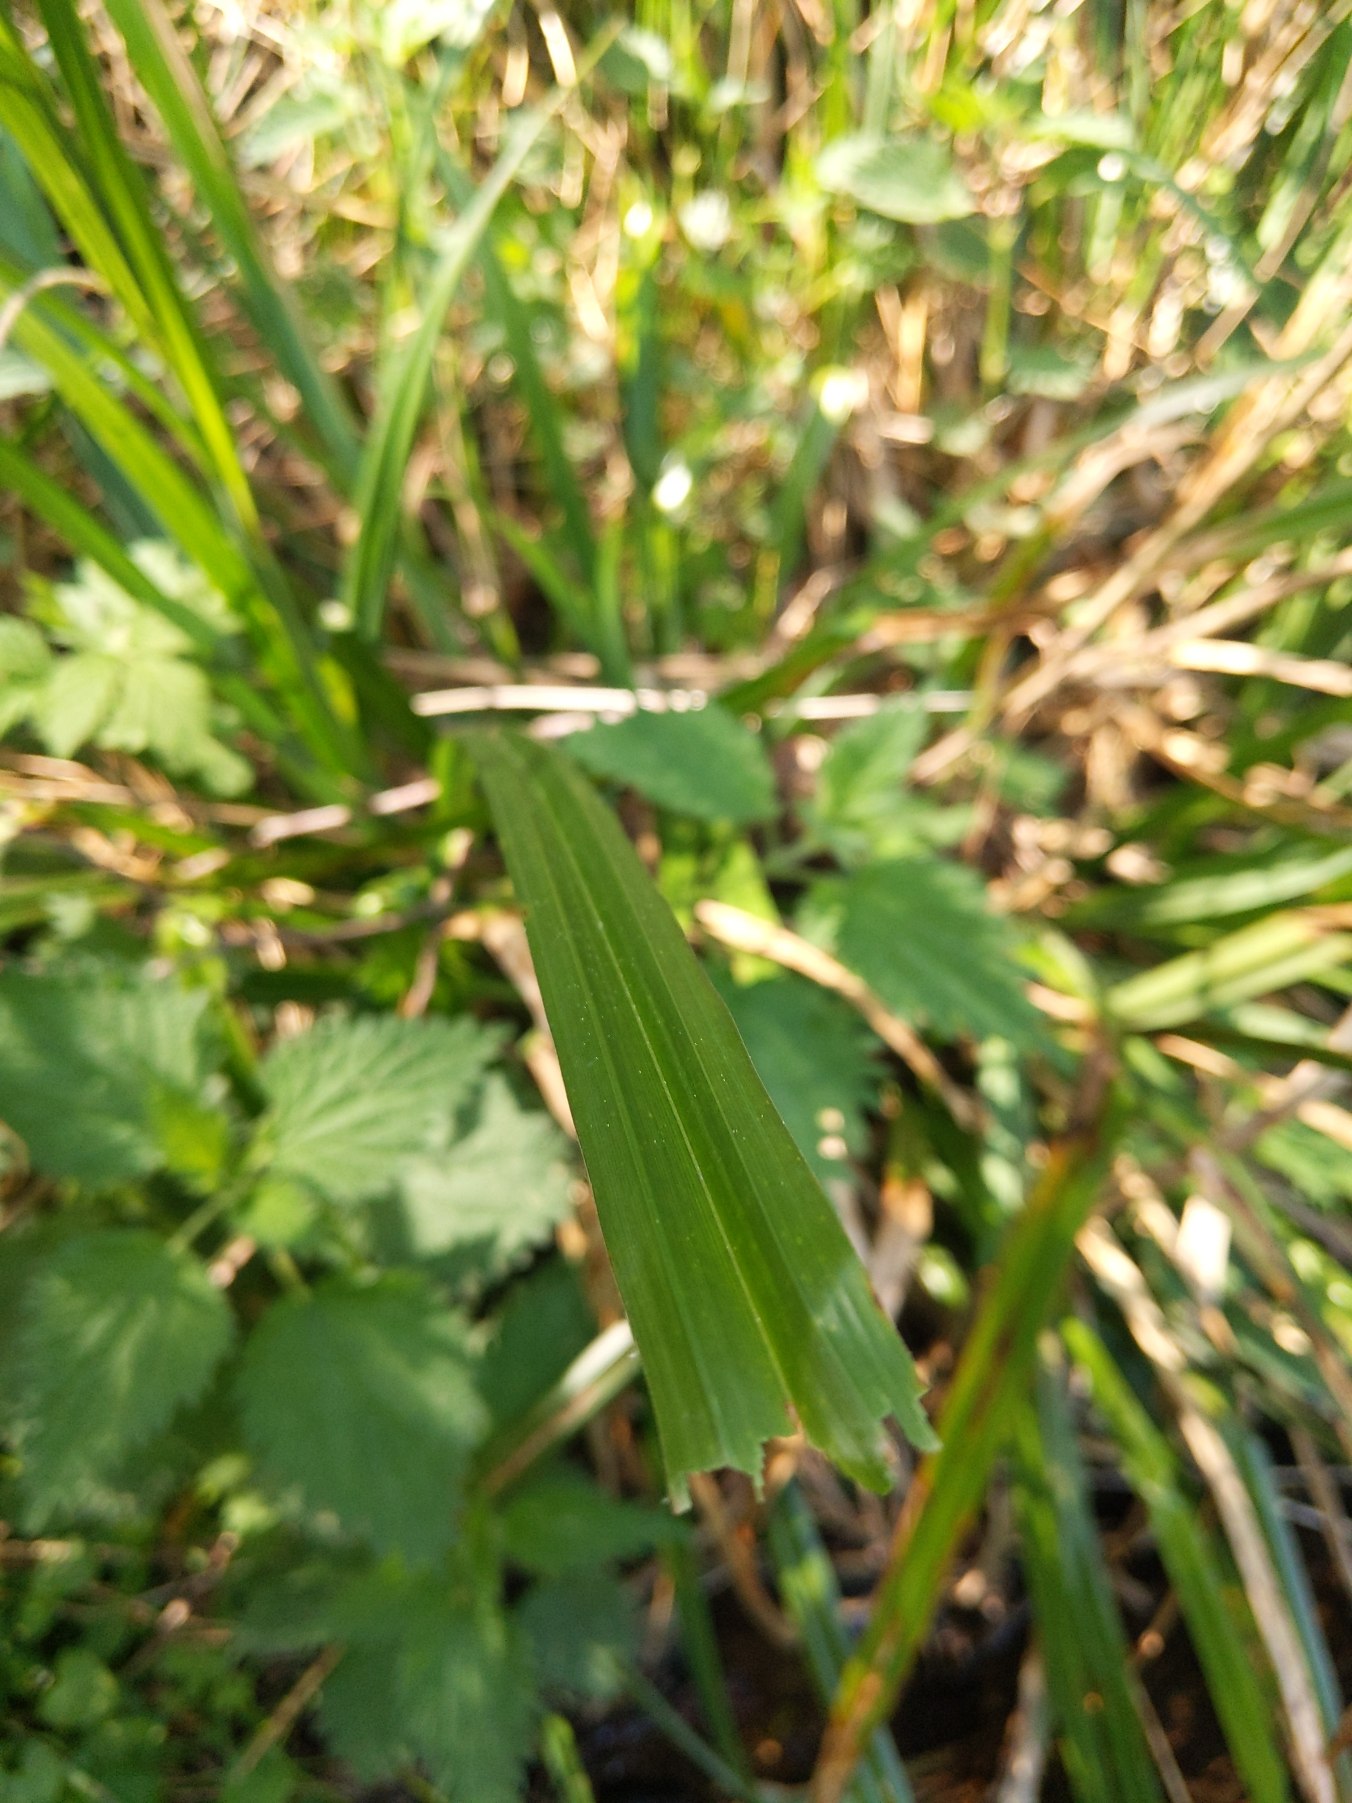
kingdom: Plantae
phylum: Tracheophyta
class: Liliopsida
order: Poales
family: Cyperaceae
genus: Carex
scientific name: Carex pendula
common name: Kæmpe-star
